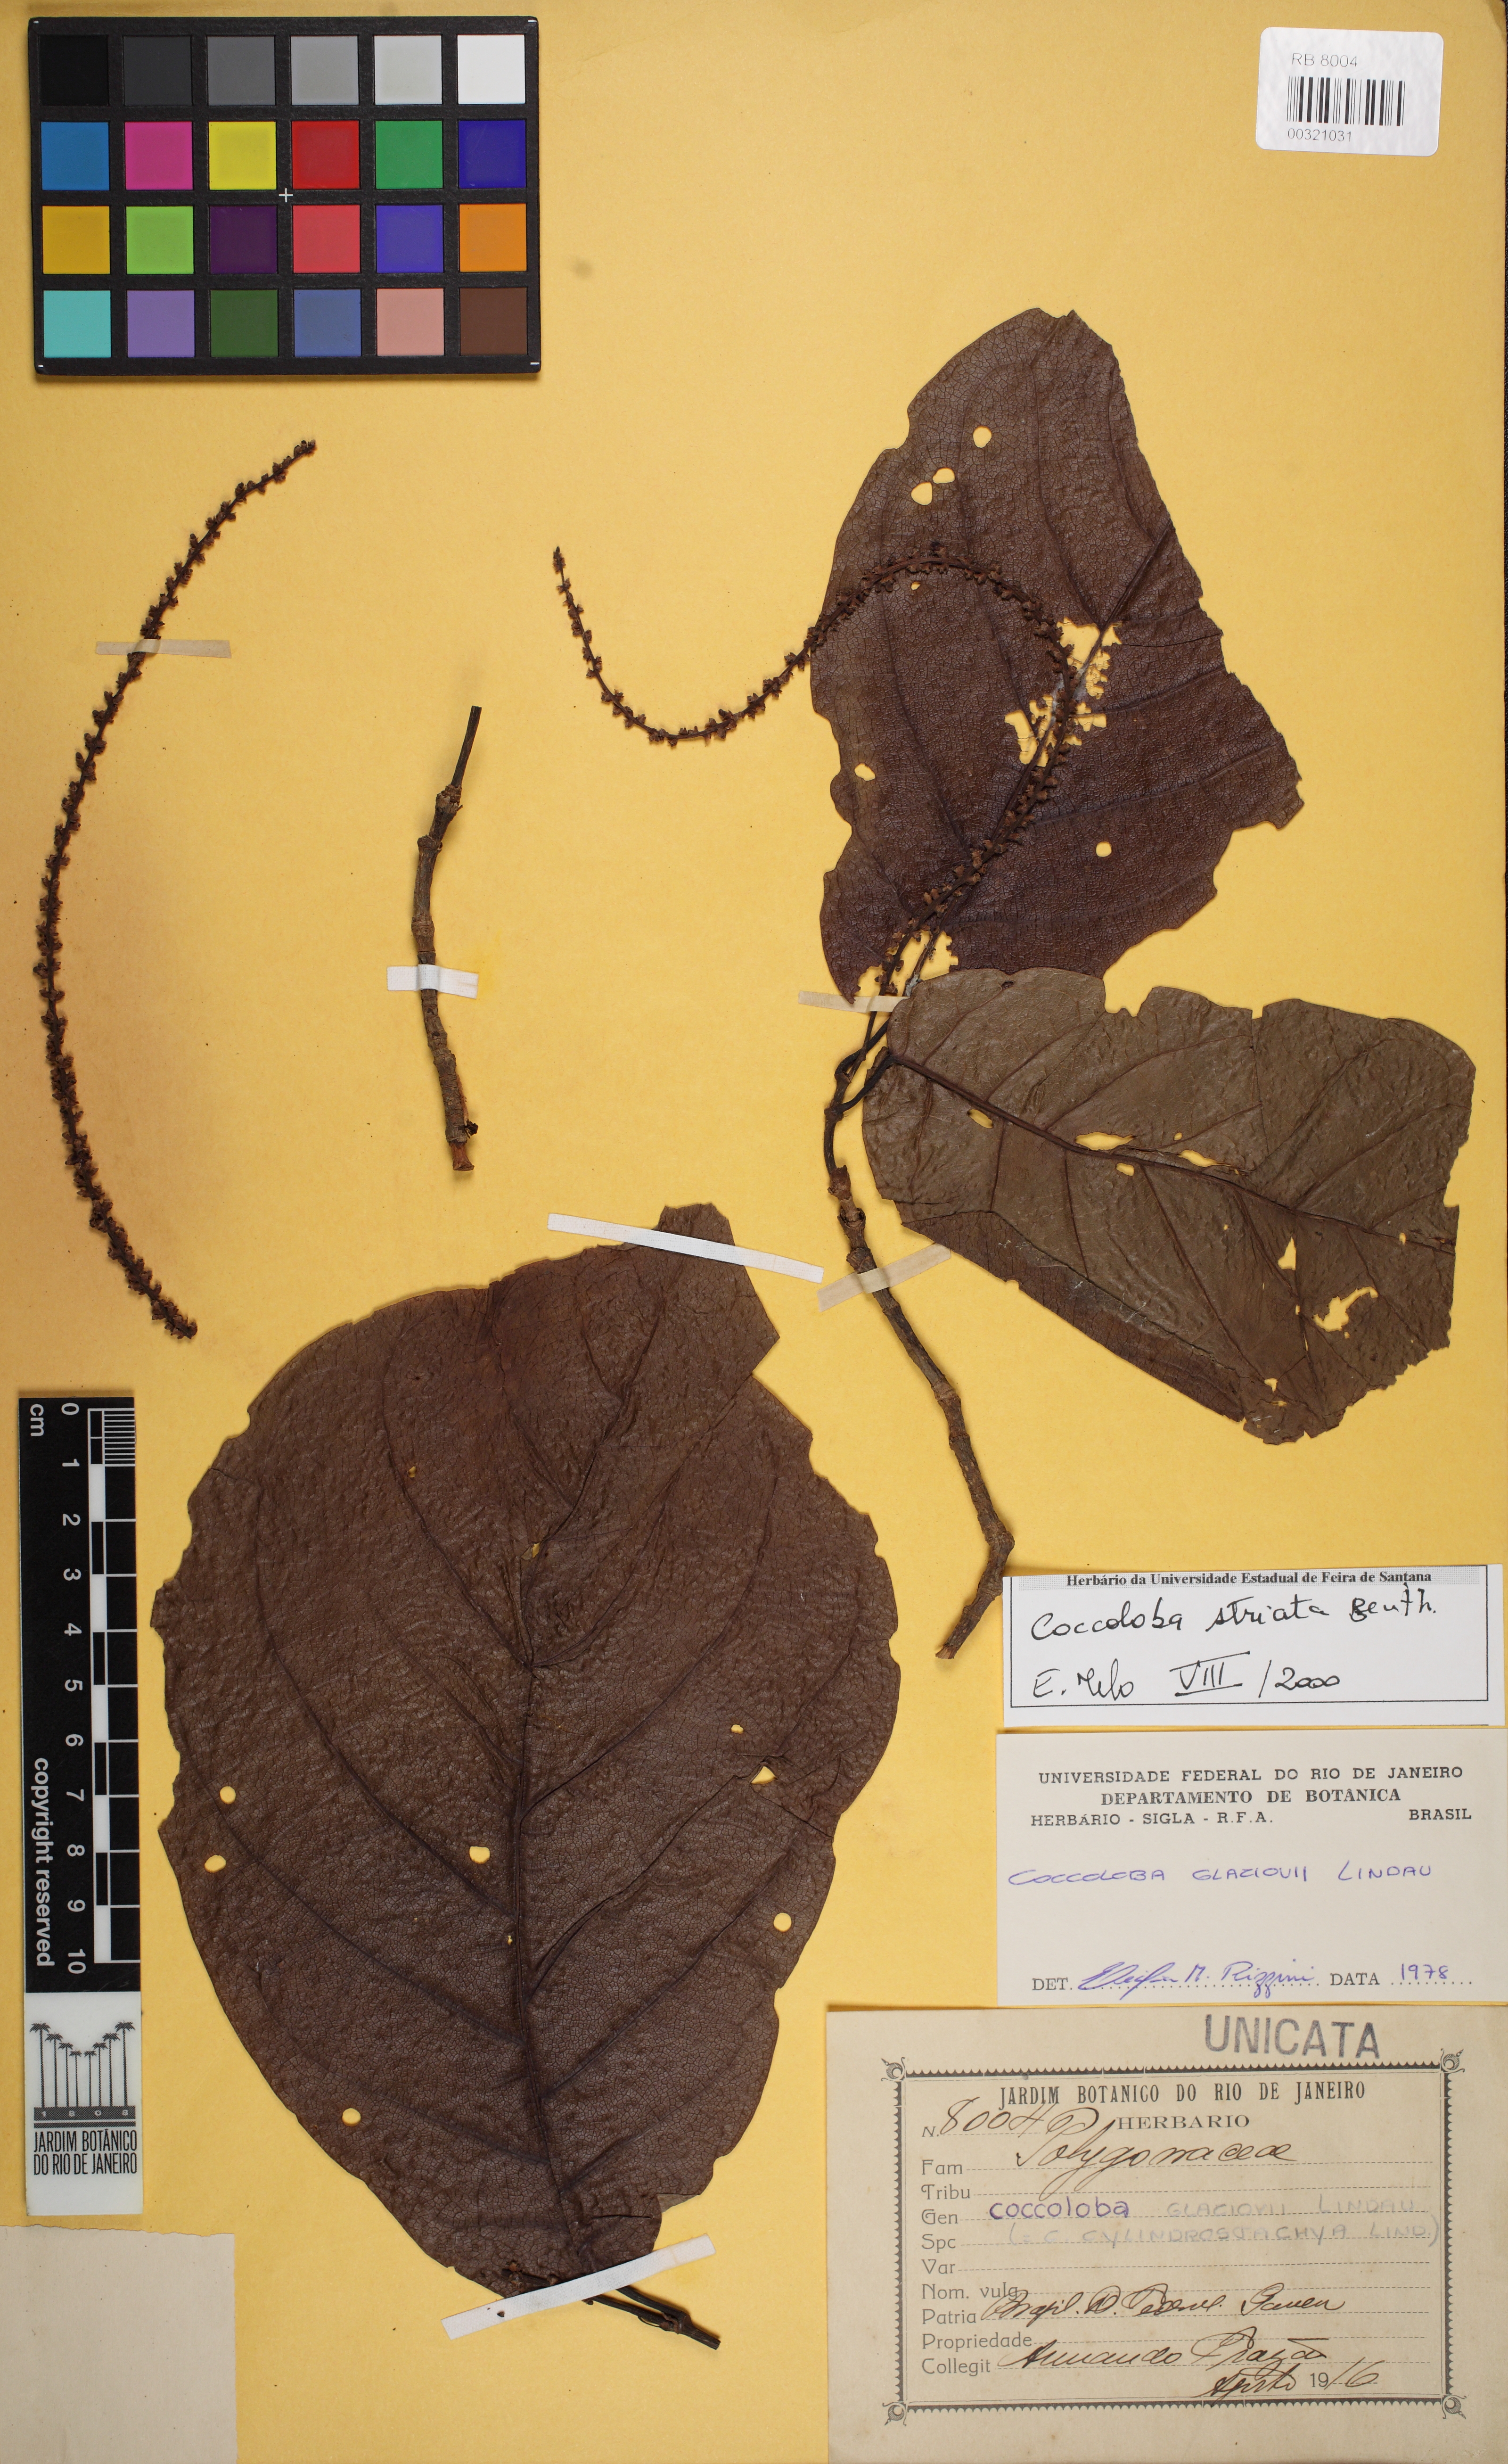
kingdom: Plantae
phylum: Tracheophyta
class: Magnoliopsida
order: Caryophyllales
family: Polygonaceae
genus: Coccoloba
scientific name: Coccoloba striata
